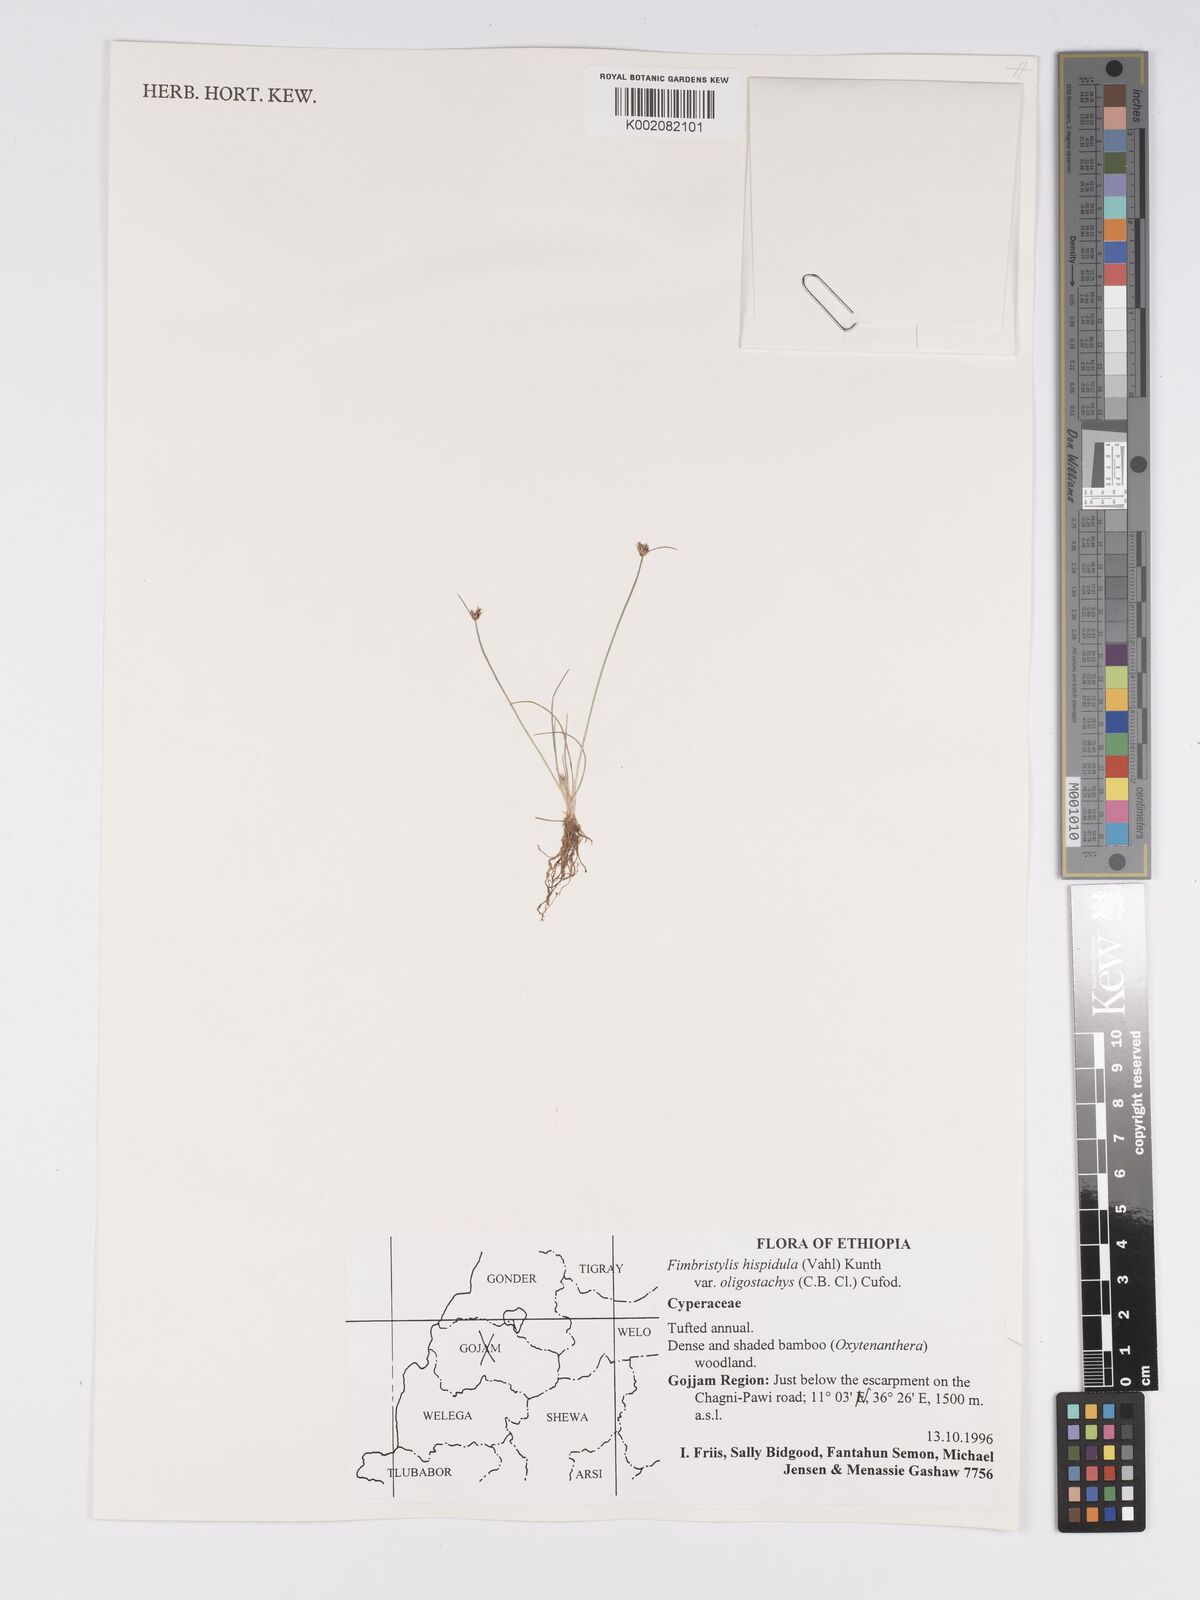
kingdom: Plantae
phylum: Tracheophyta
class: Liliopsida
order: Poales
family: Cyperaceae
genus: Bulbostylis
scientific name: Bulbostylis hispidula
